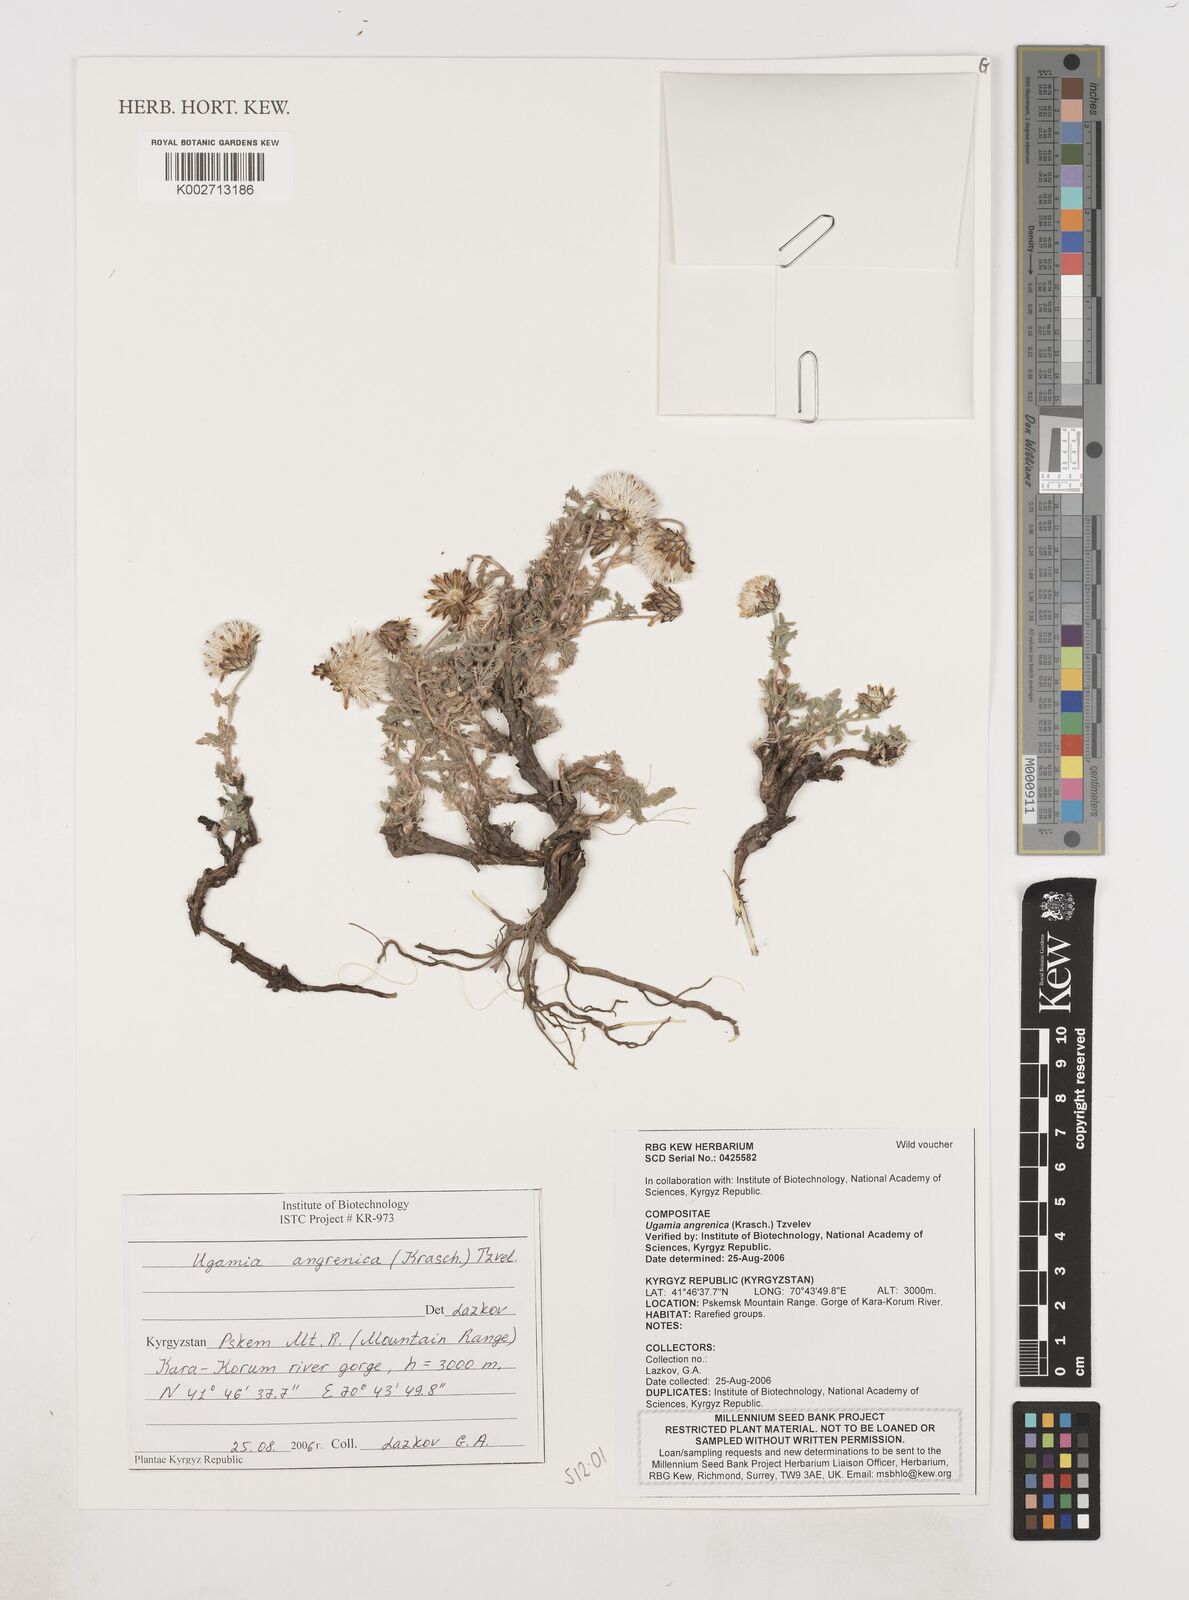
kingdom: Plantae
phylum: Tracheophyta
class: Magnoliopsida
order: Asterales
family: Asteraceae
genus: Ugamia
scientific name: Ugamia angrenica
